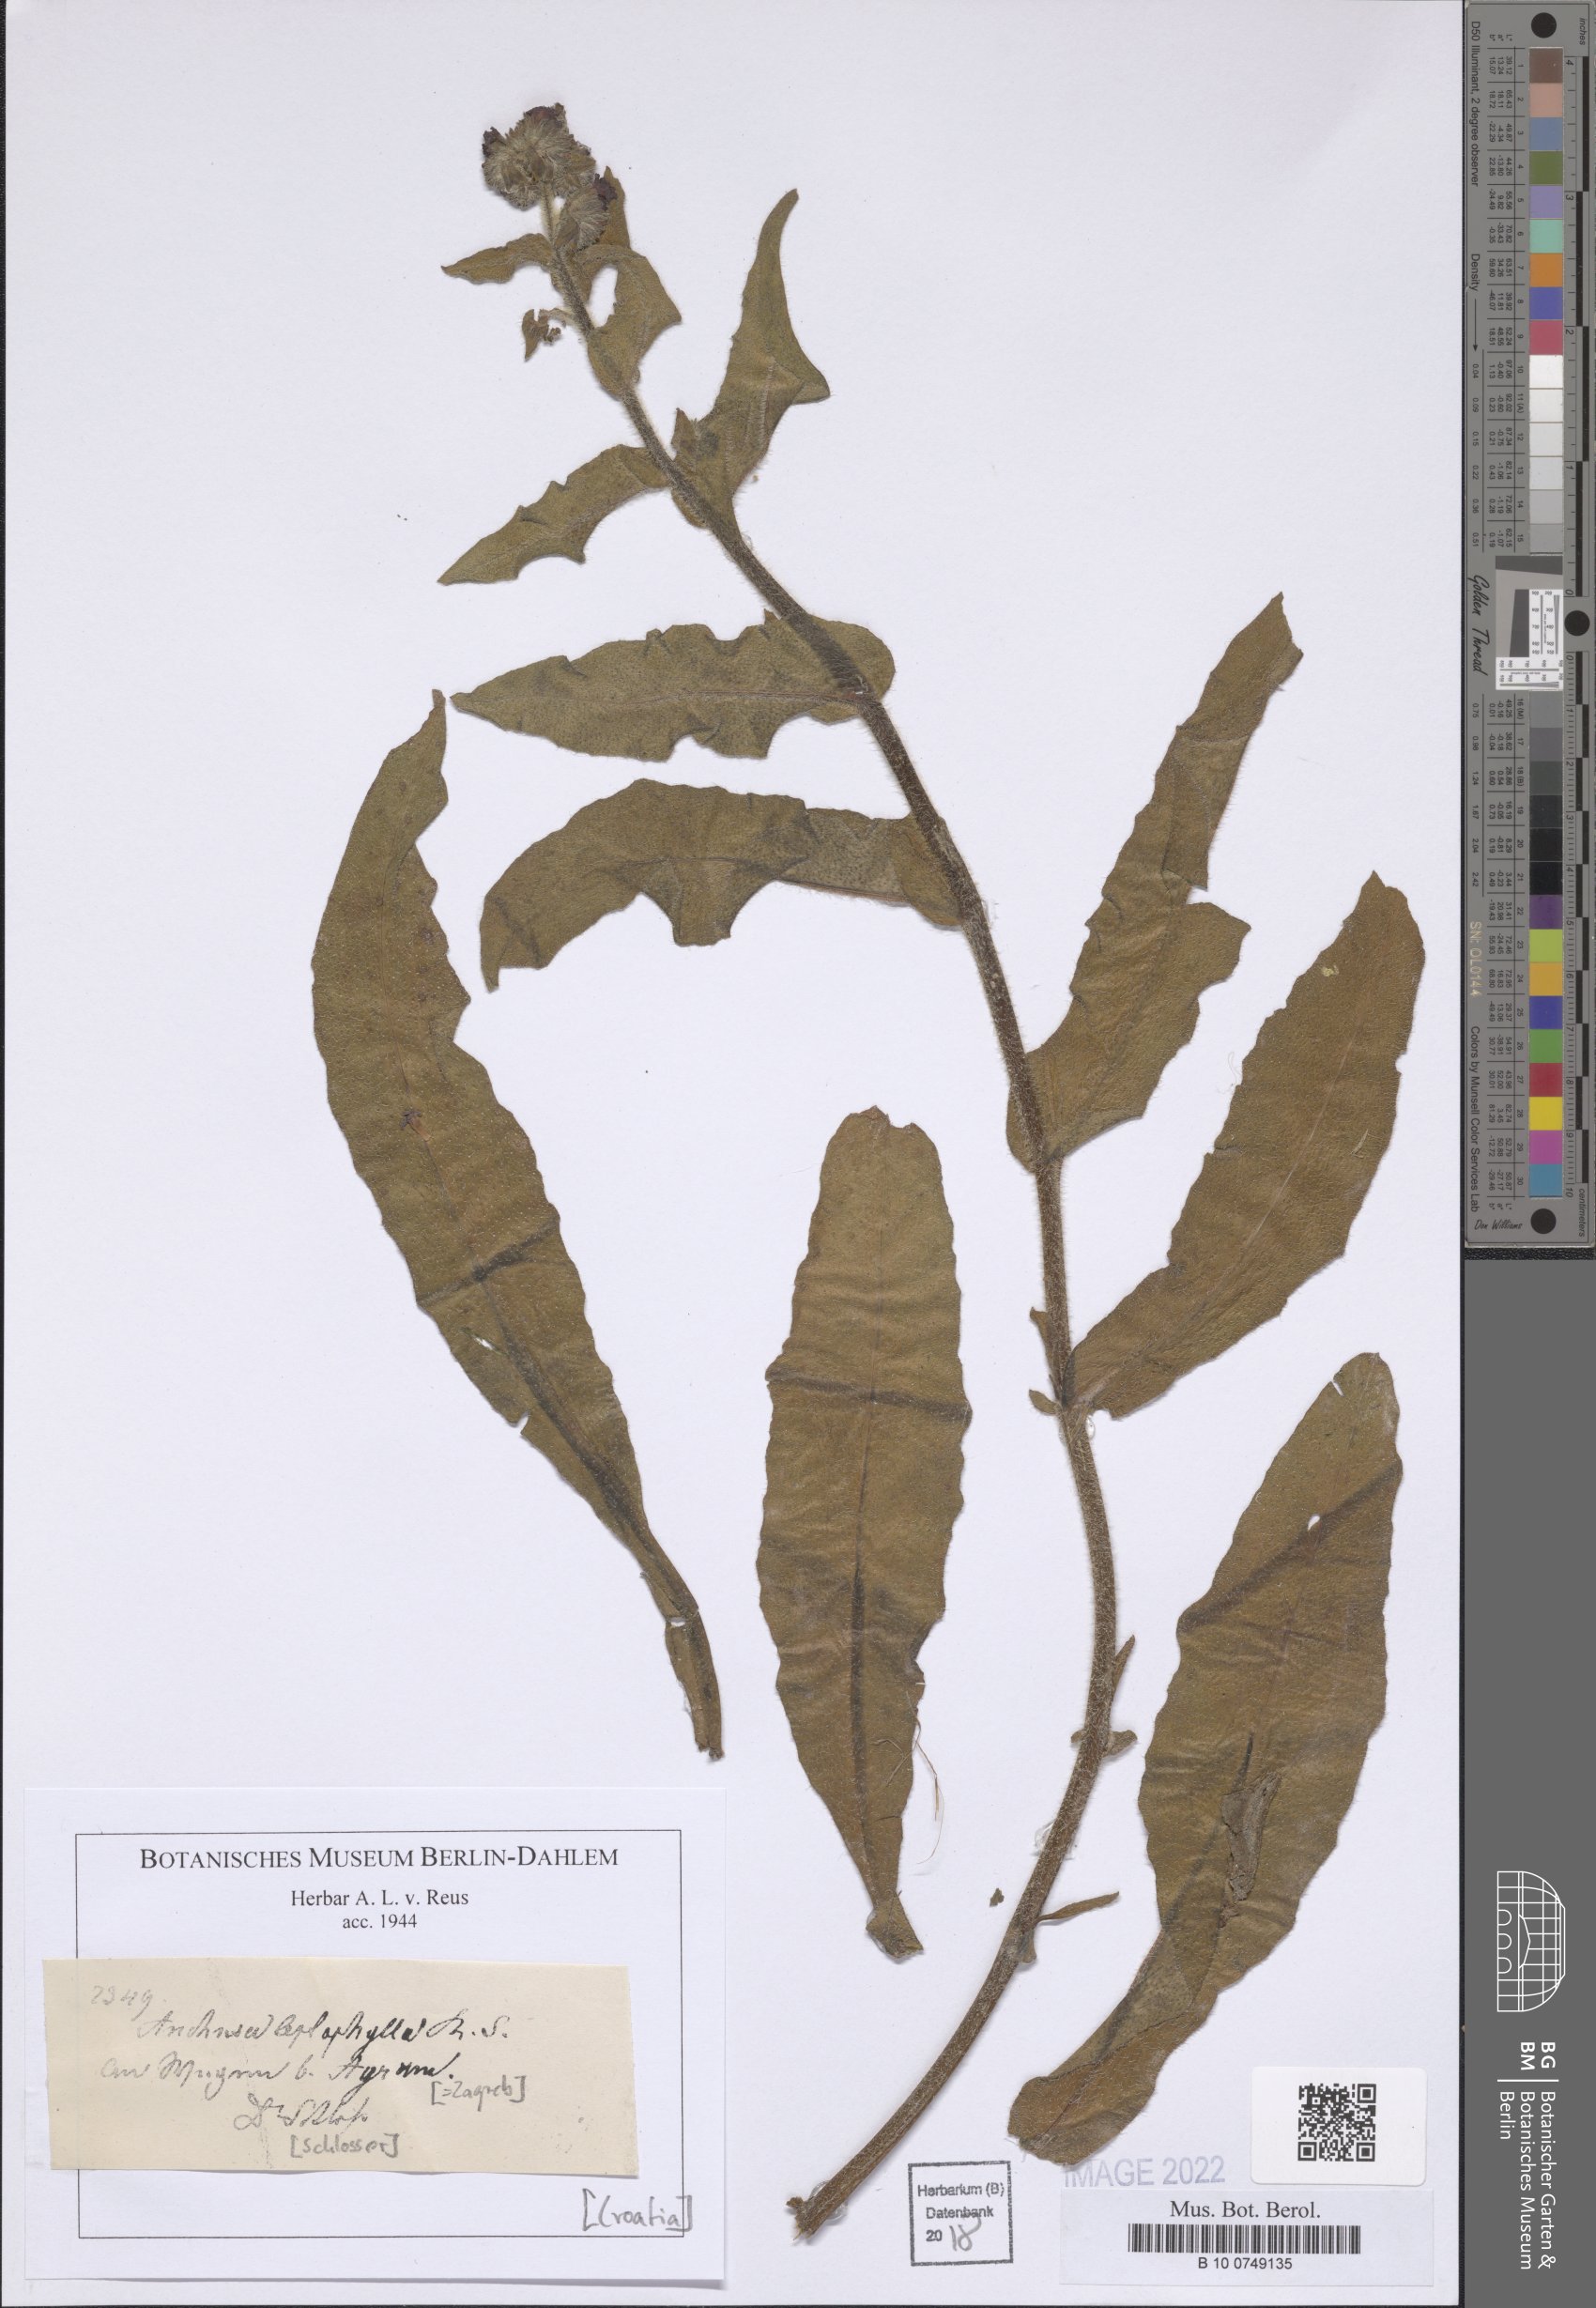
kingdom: Plantae
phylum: Tracheophyta
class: Magnoliopsida
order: Boraginales
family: Boraginaceae
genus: Anchusa
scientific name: Anchusa leptophylla
